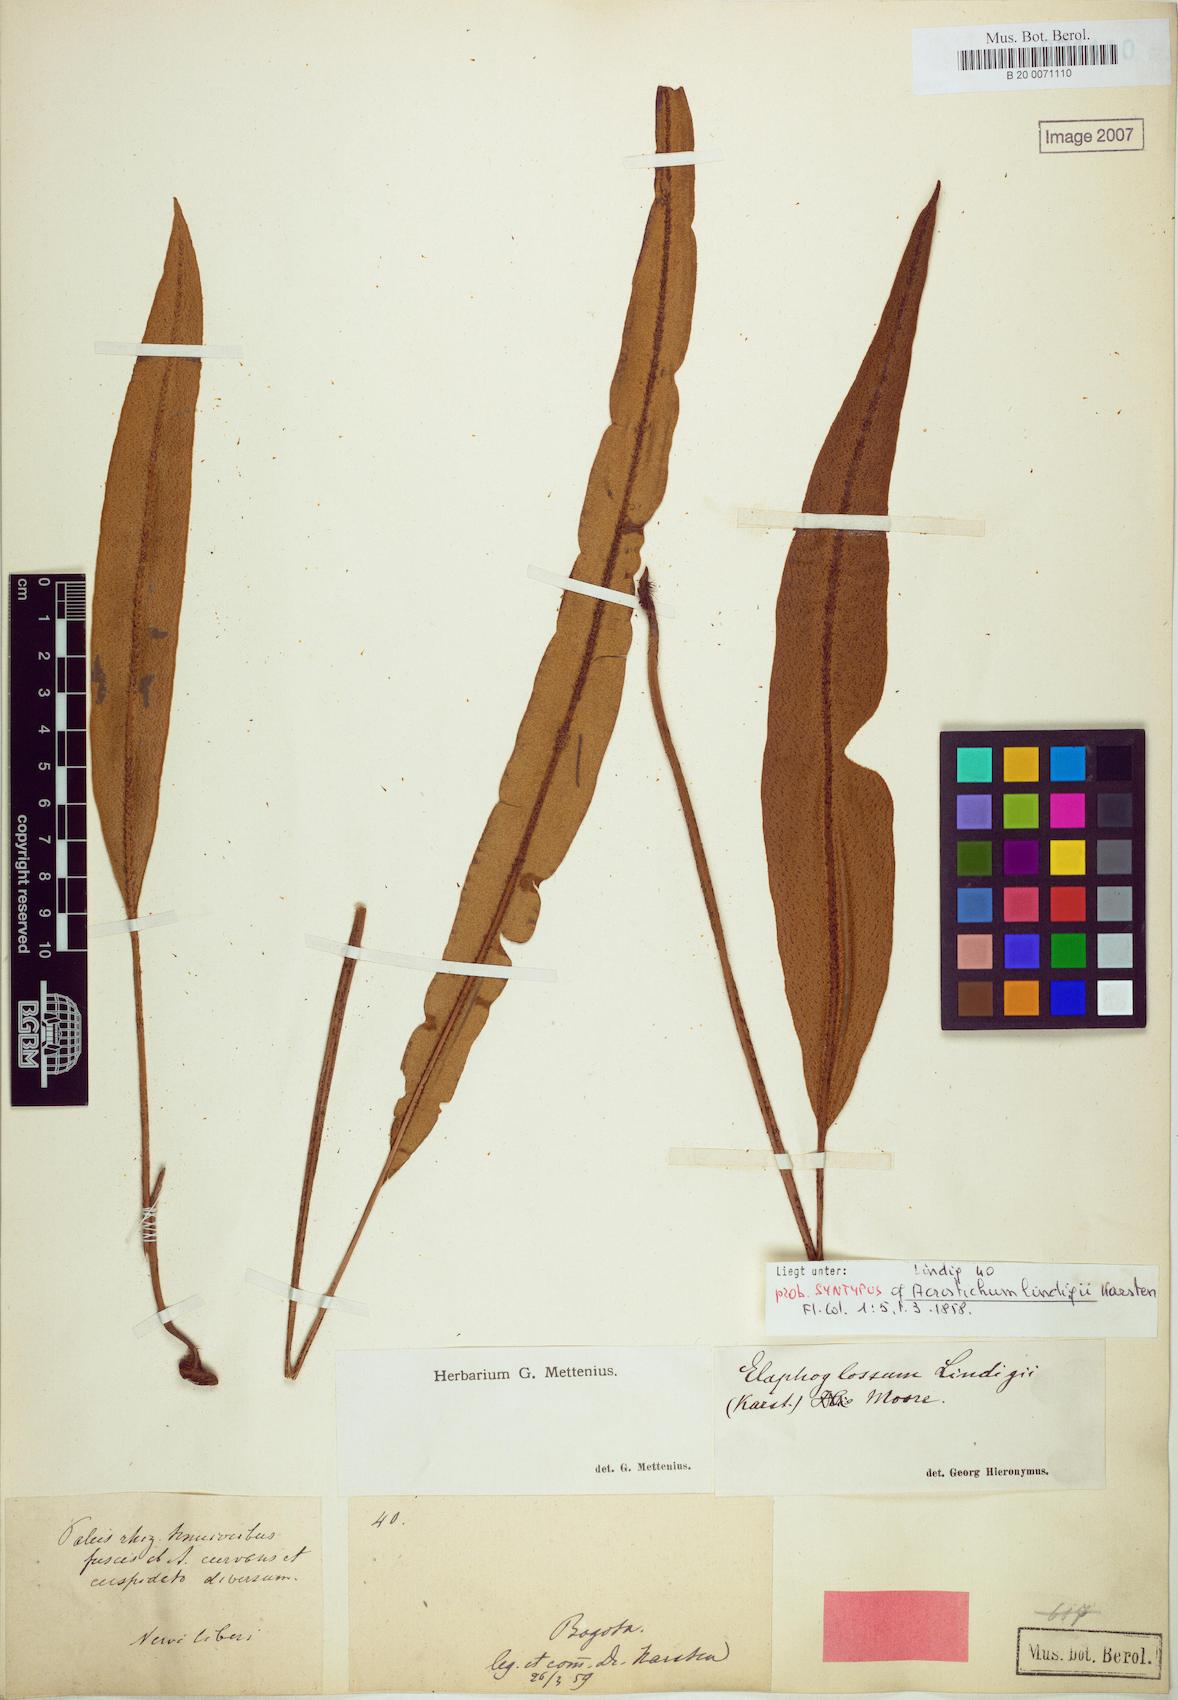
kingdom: Plantae
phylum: Tracheophyta
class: Polypodiopsida
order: Polypodiales
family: Dryopteridaceae
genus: Elaphoglossum
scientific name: Elaphoglossum lindigii
